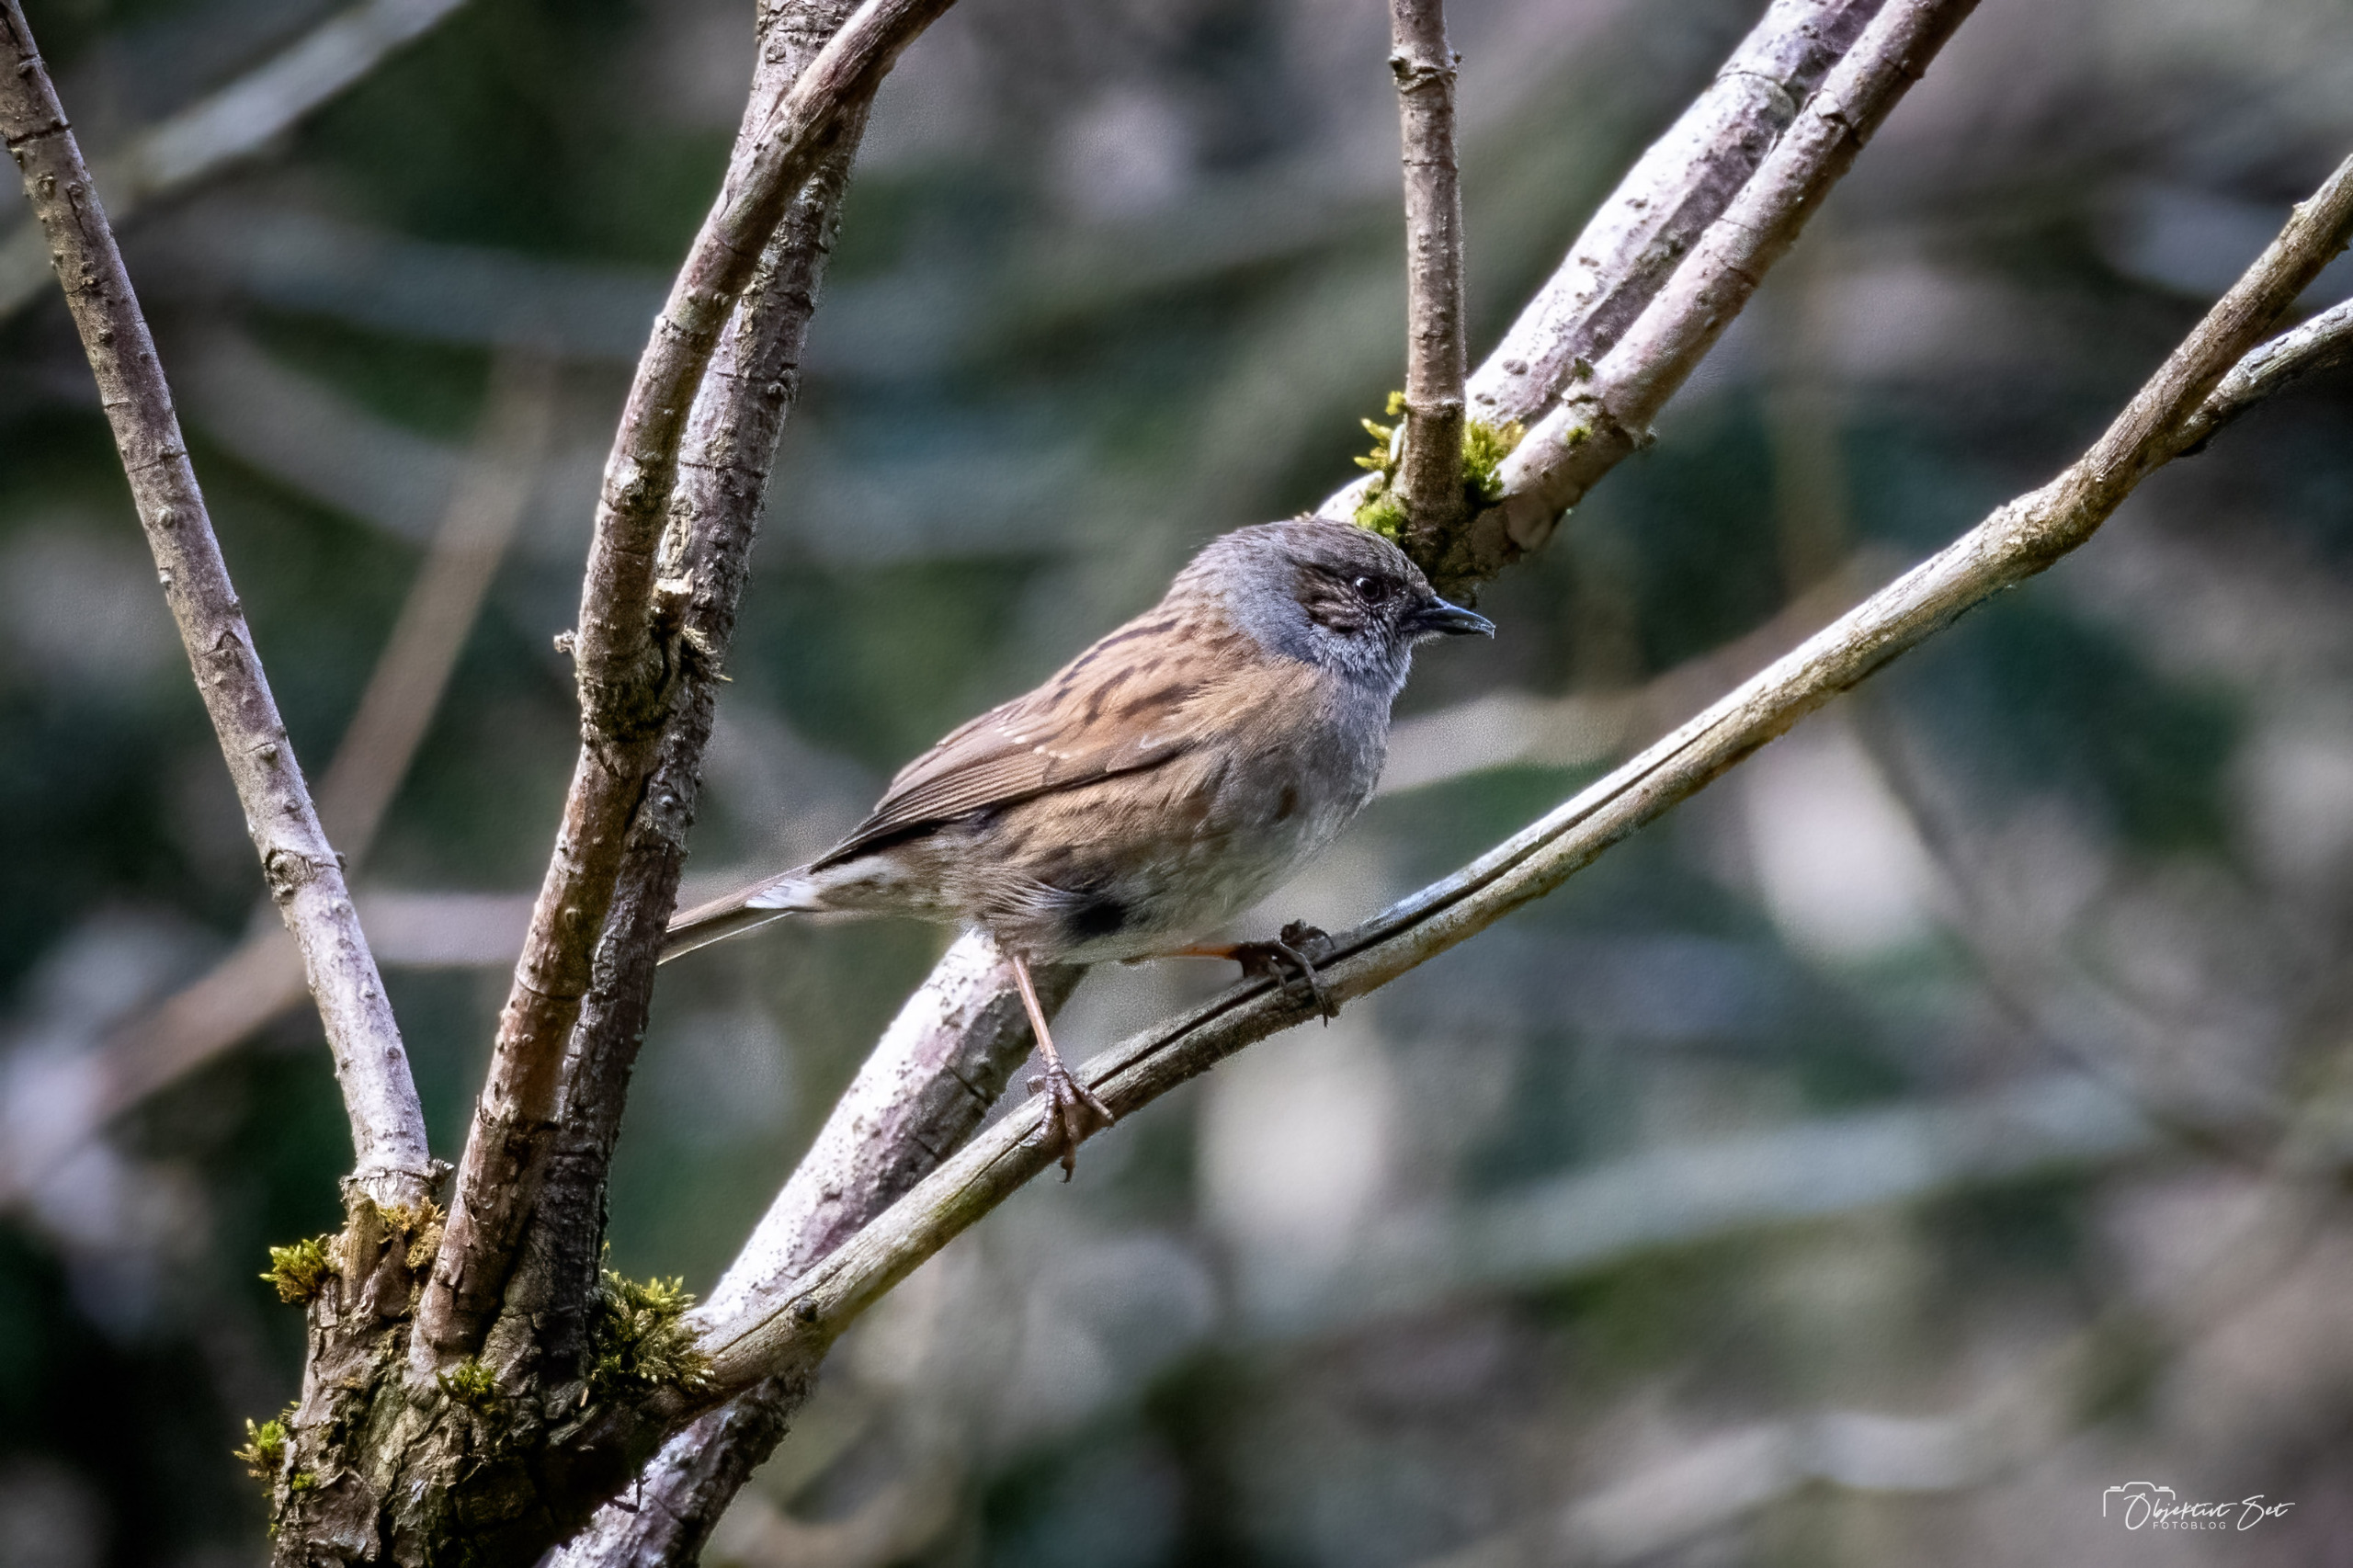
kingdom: Animalia
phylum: Chordata
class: Aves
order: Passeriformes
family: Prunellidae
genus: Prunella
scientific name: Prunella modularis
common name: Jernspurv
